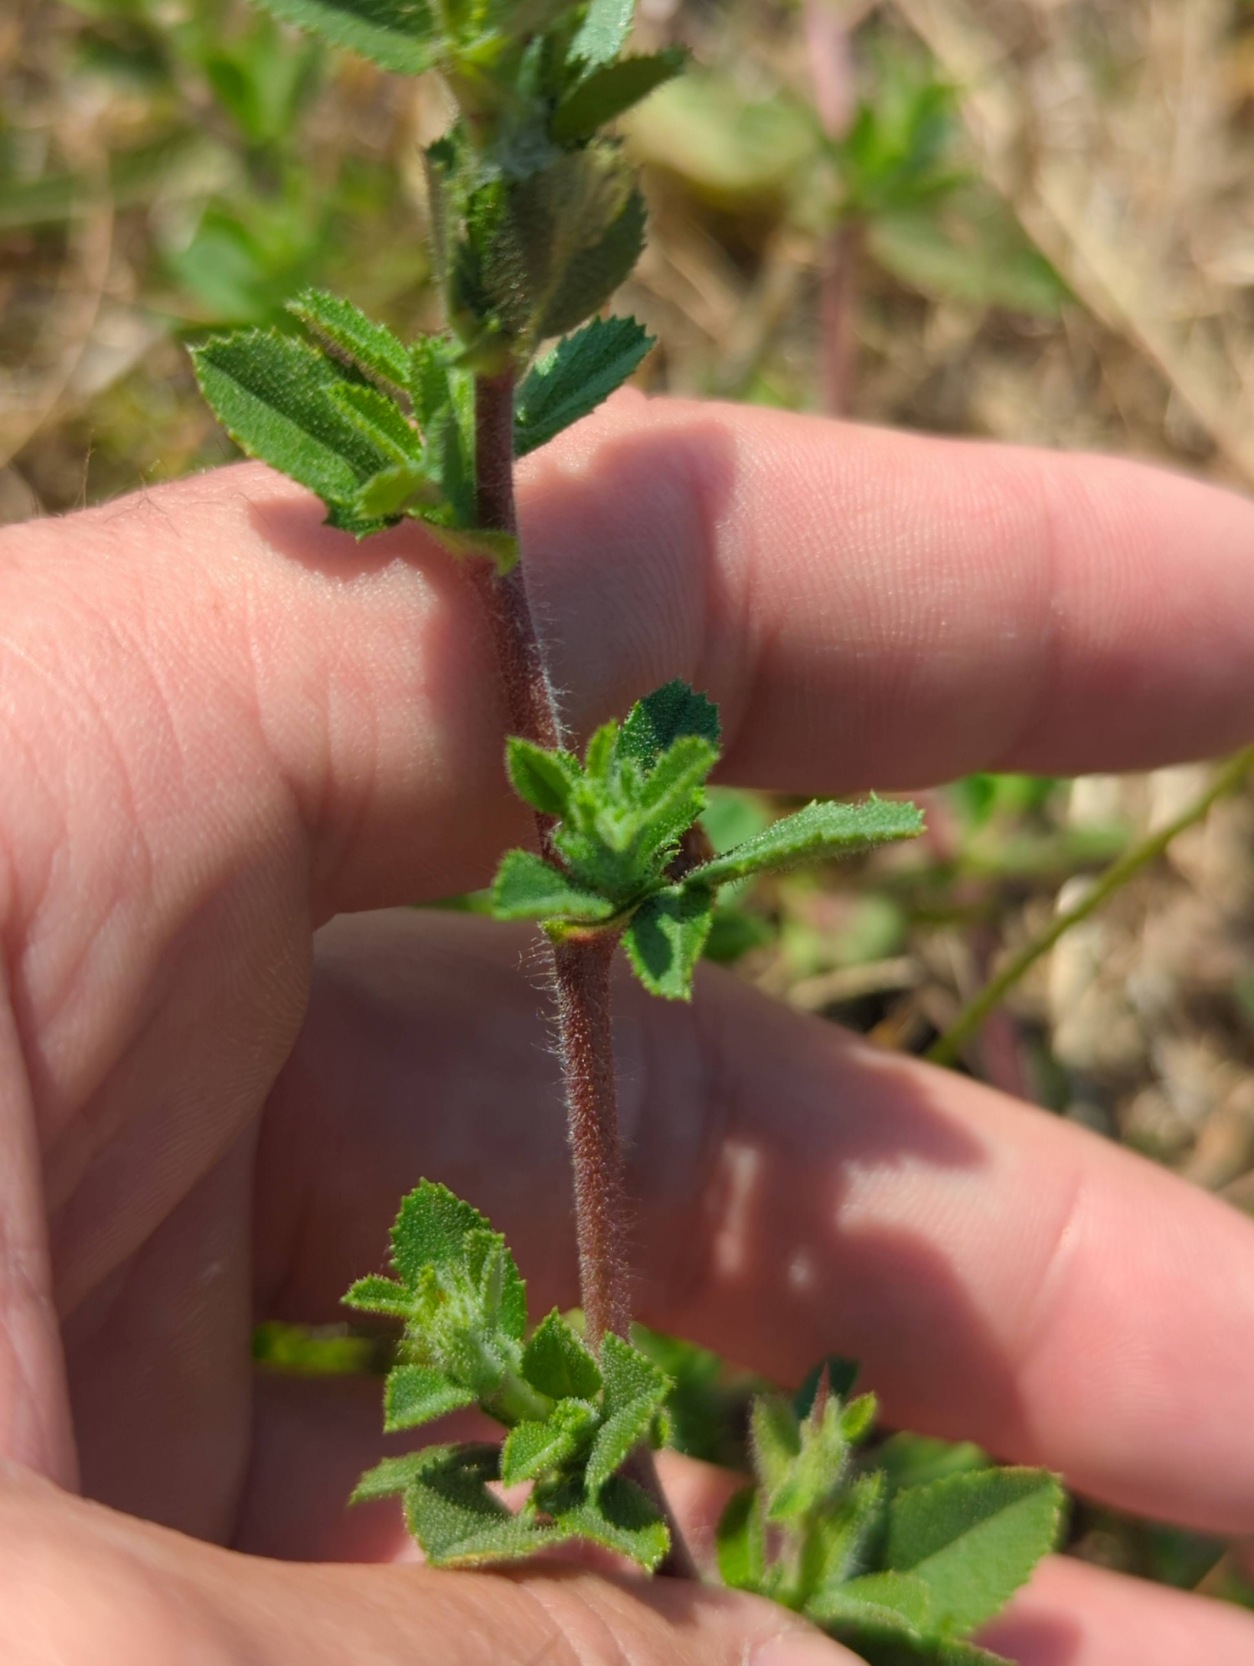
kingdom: Plantae
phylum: Tracheophyta
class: Magnoliopsida
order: Fabales
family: Fabaceae
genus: Ononis
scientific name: Ononis spinosa
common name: Krageklo
